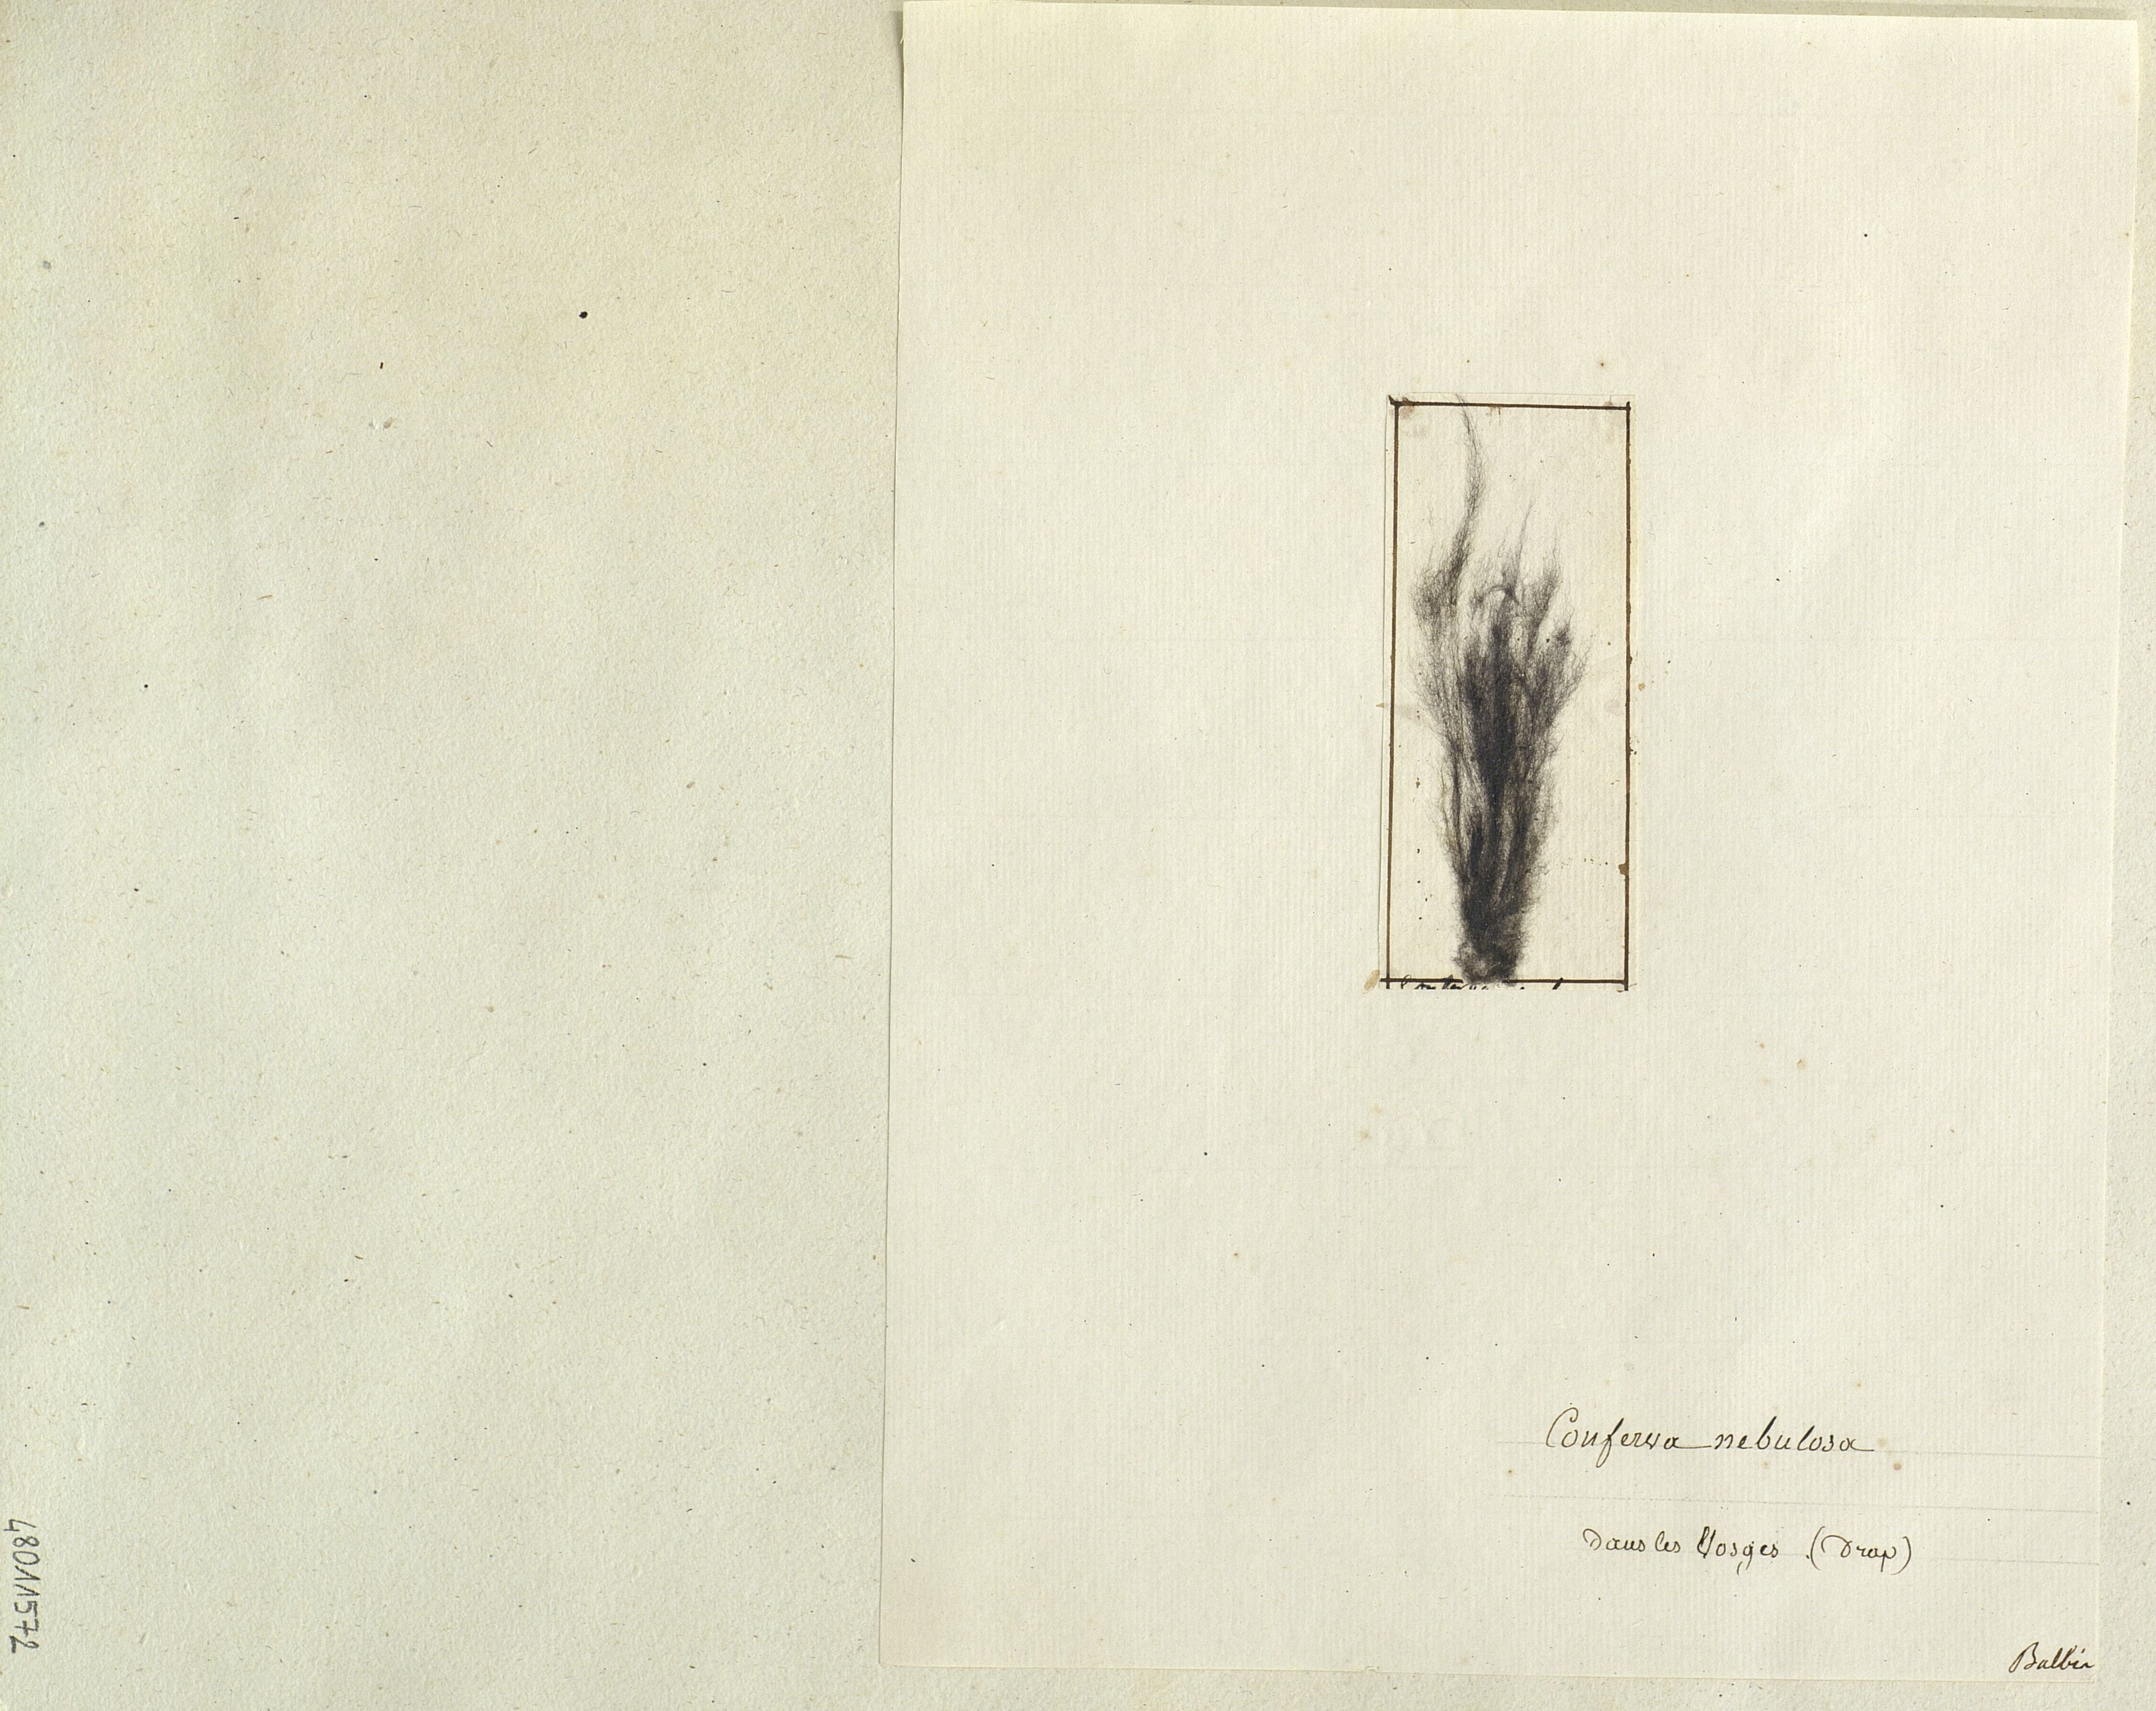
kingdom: Plantae
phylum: Chlorophyta
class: Ulvophyceae
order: Cladophorales
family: Cladophoraceae
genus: Conferva
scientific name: Conferva
